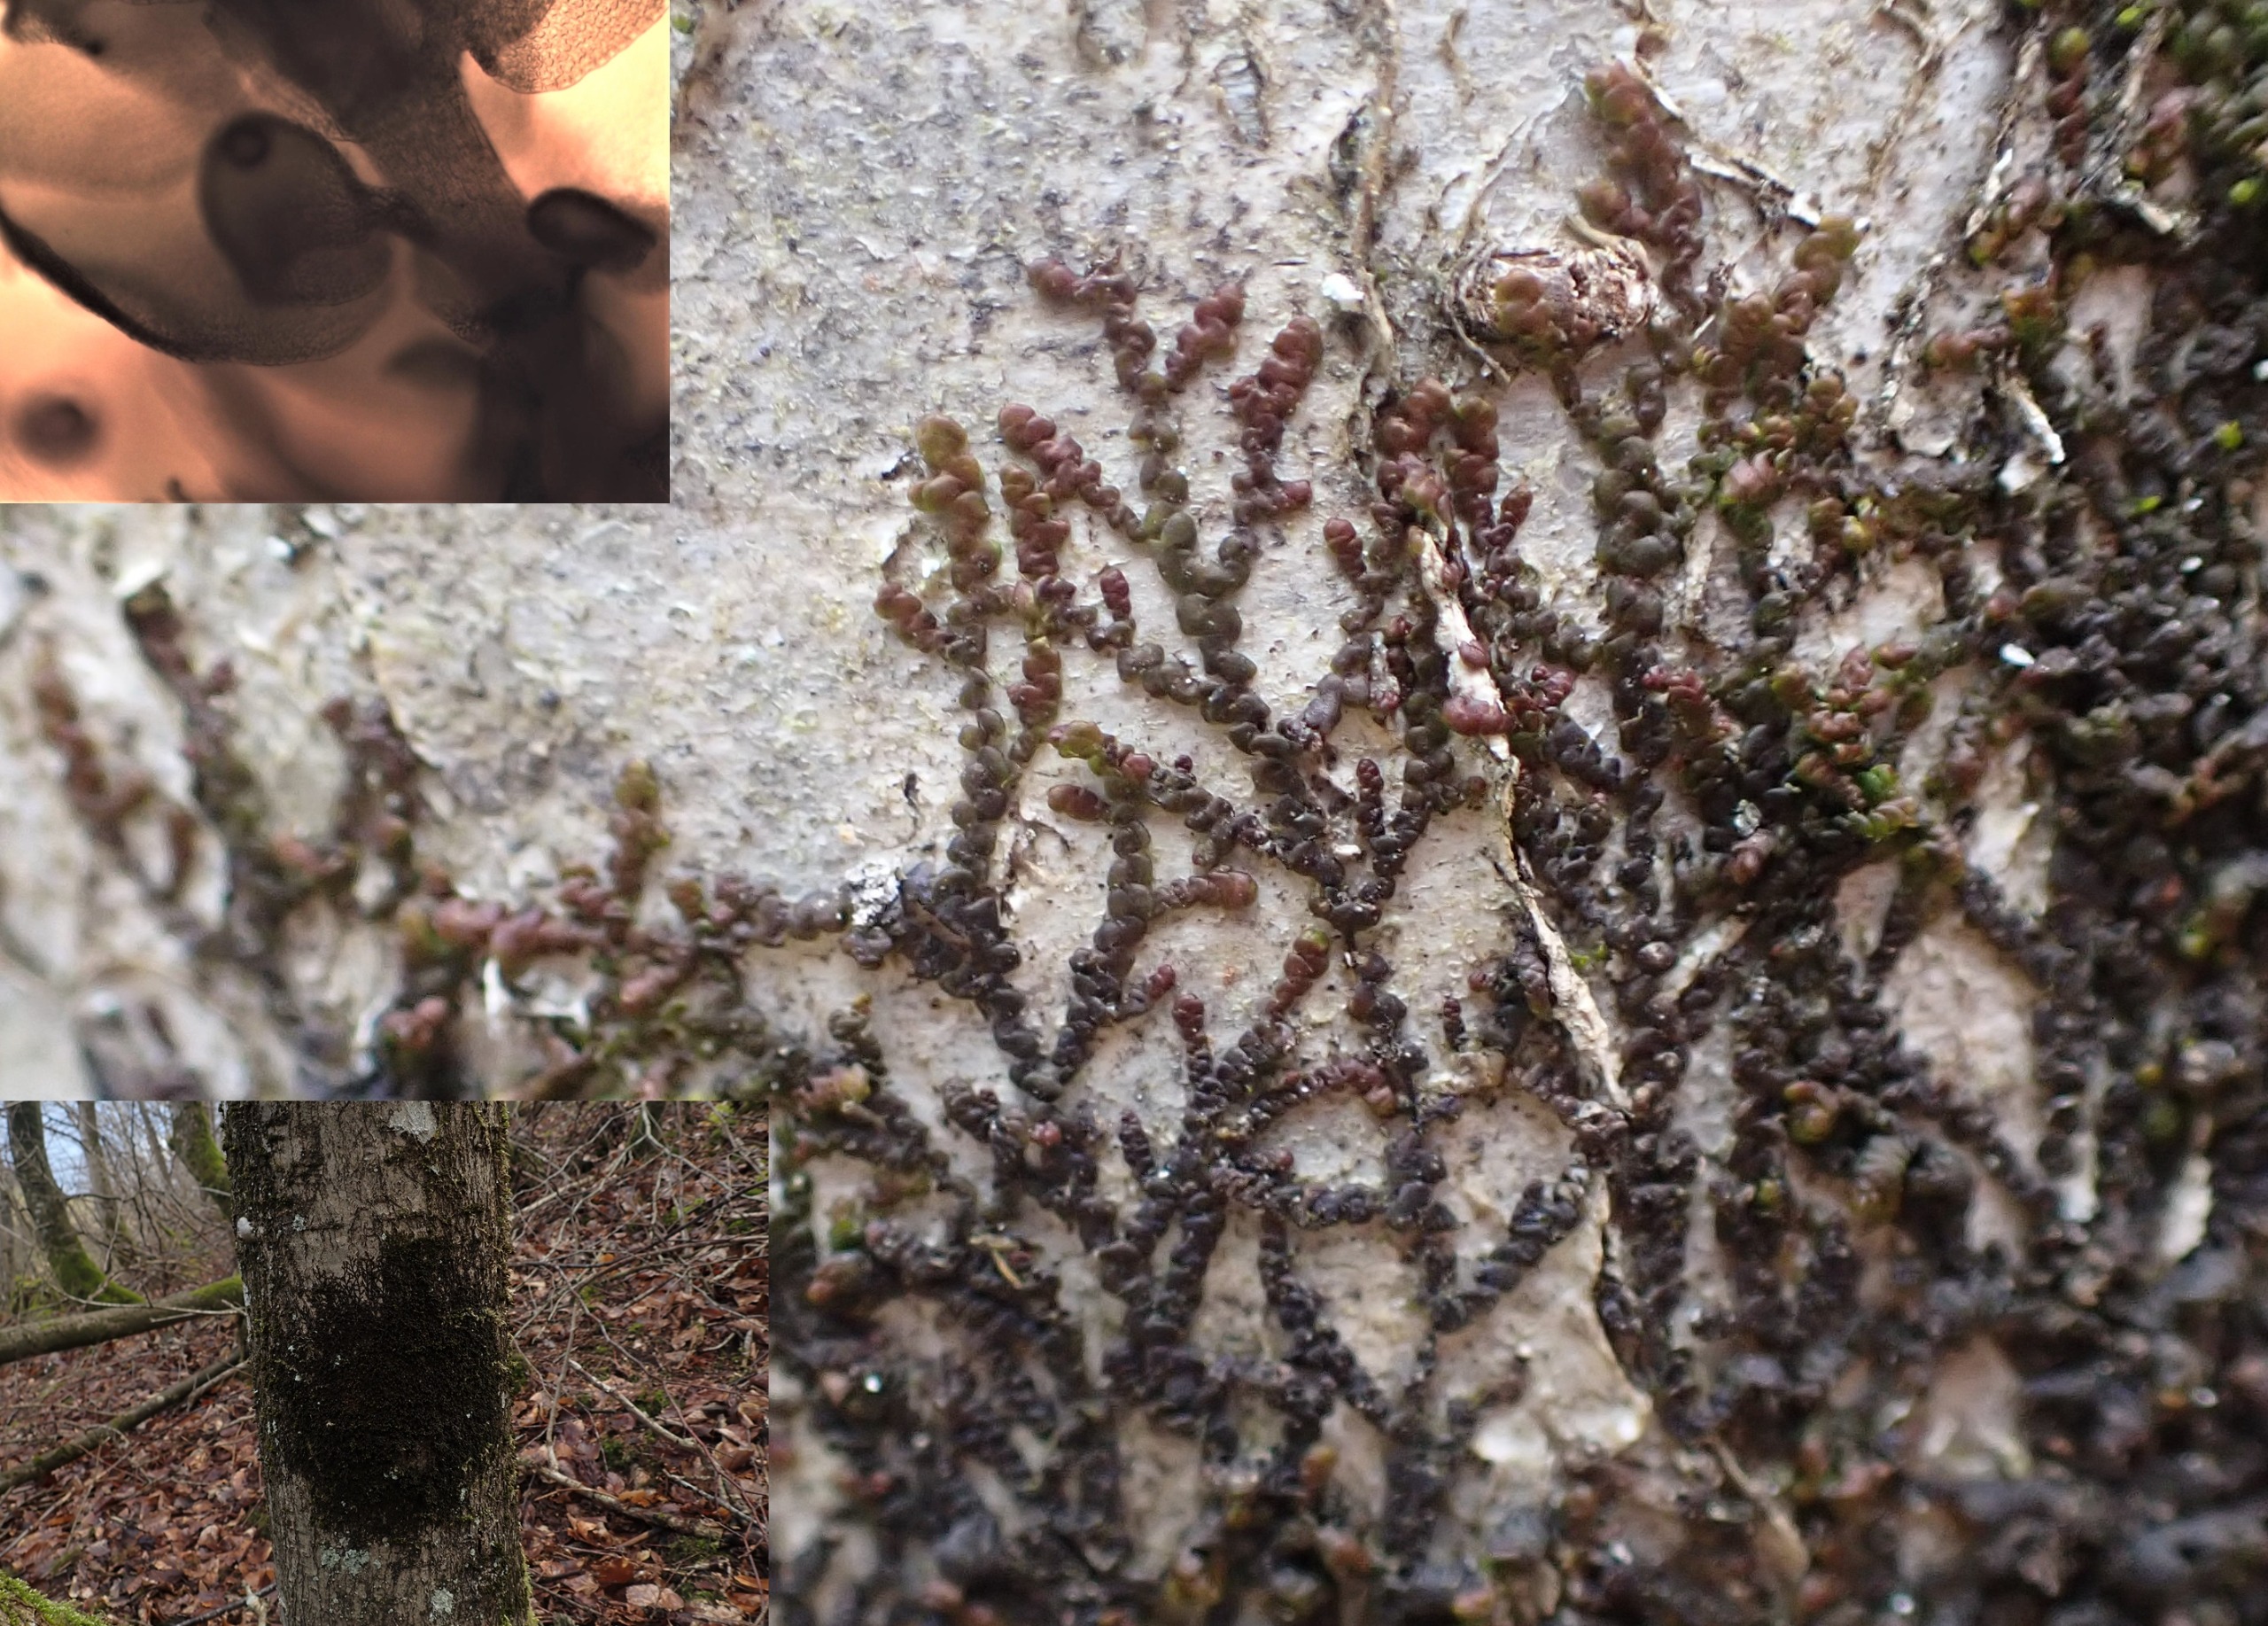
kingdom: Plantae
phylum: Marchantiophyta
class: Jungermanniopsida
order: Porellales
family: Frullaniaceae
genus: Frullania
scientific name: Frullania dilatata
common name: Mat bronzemos
